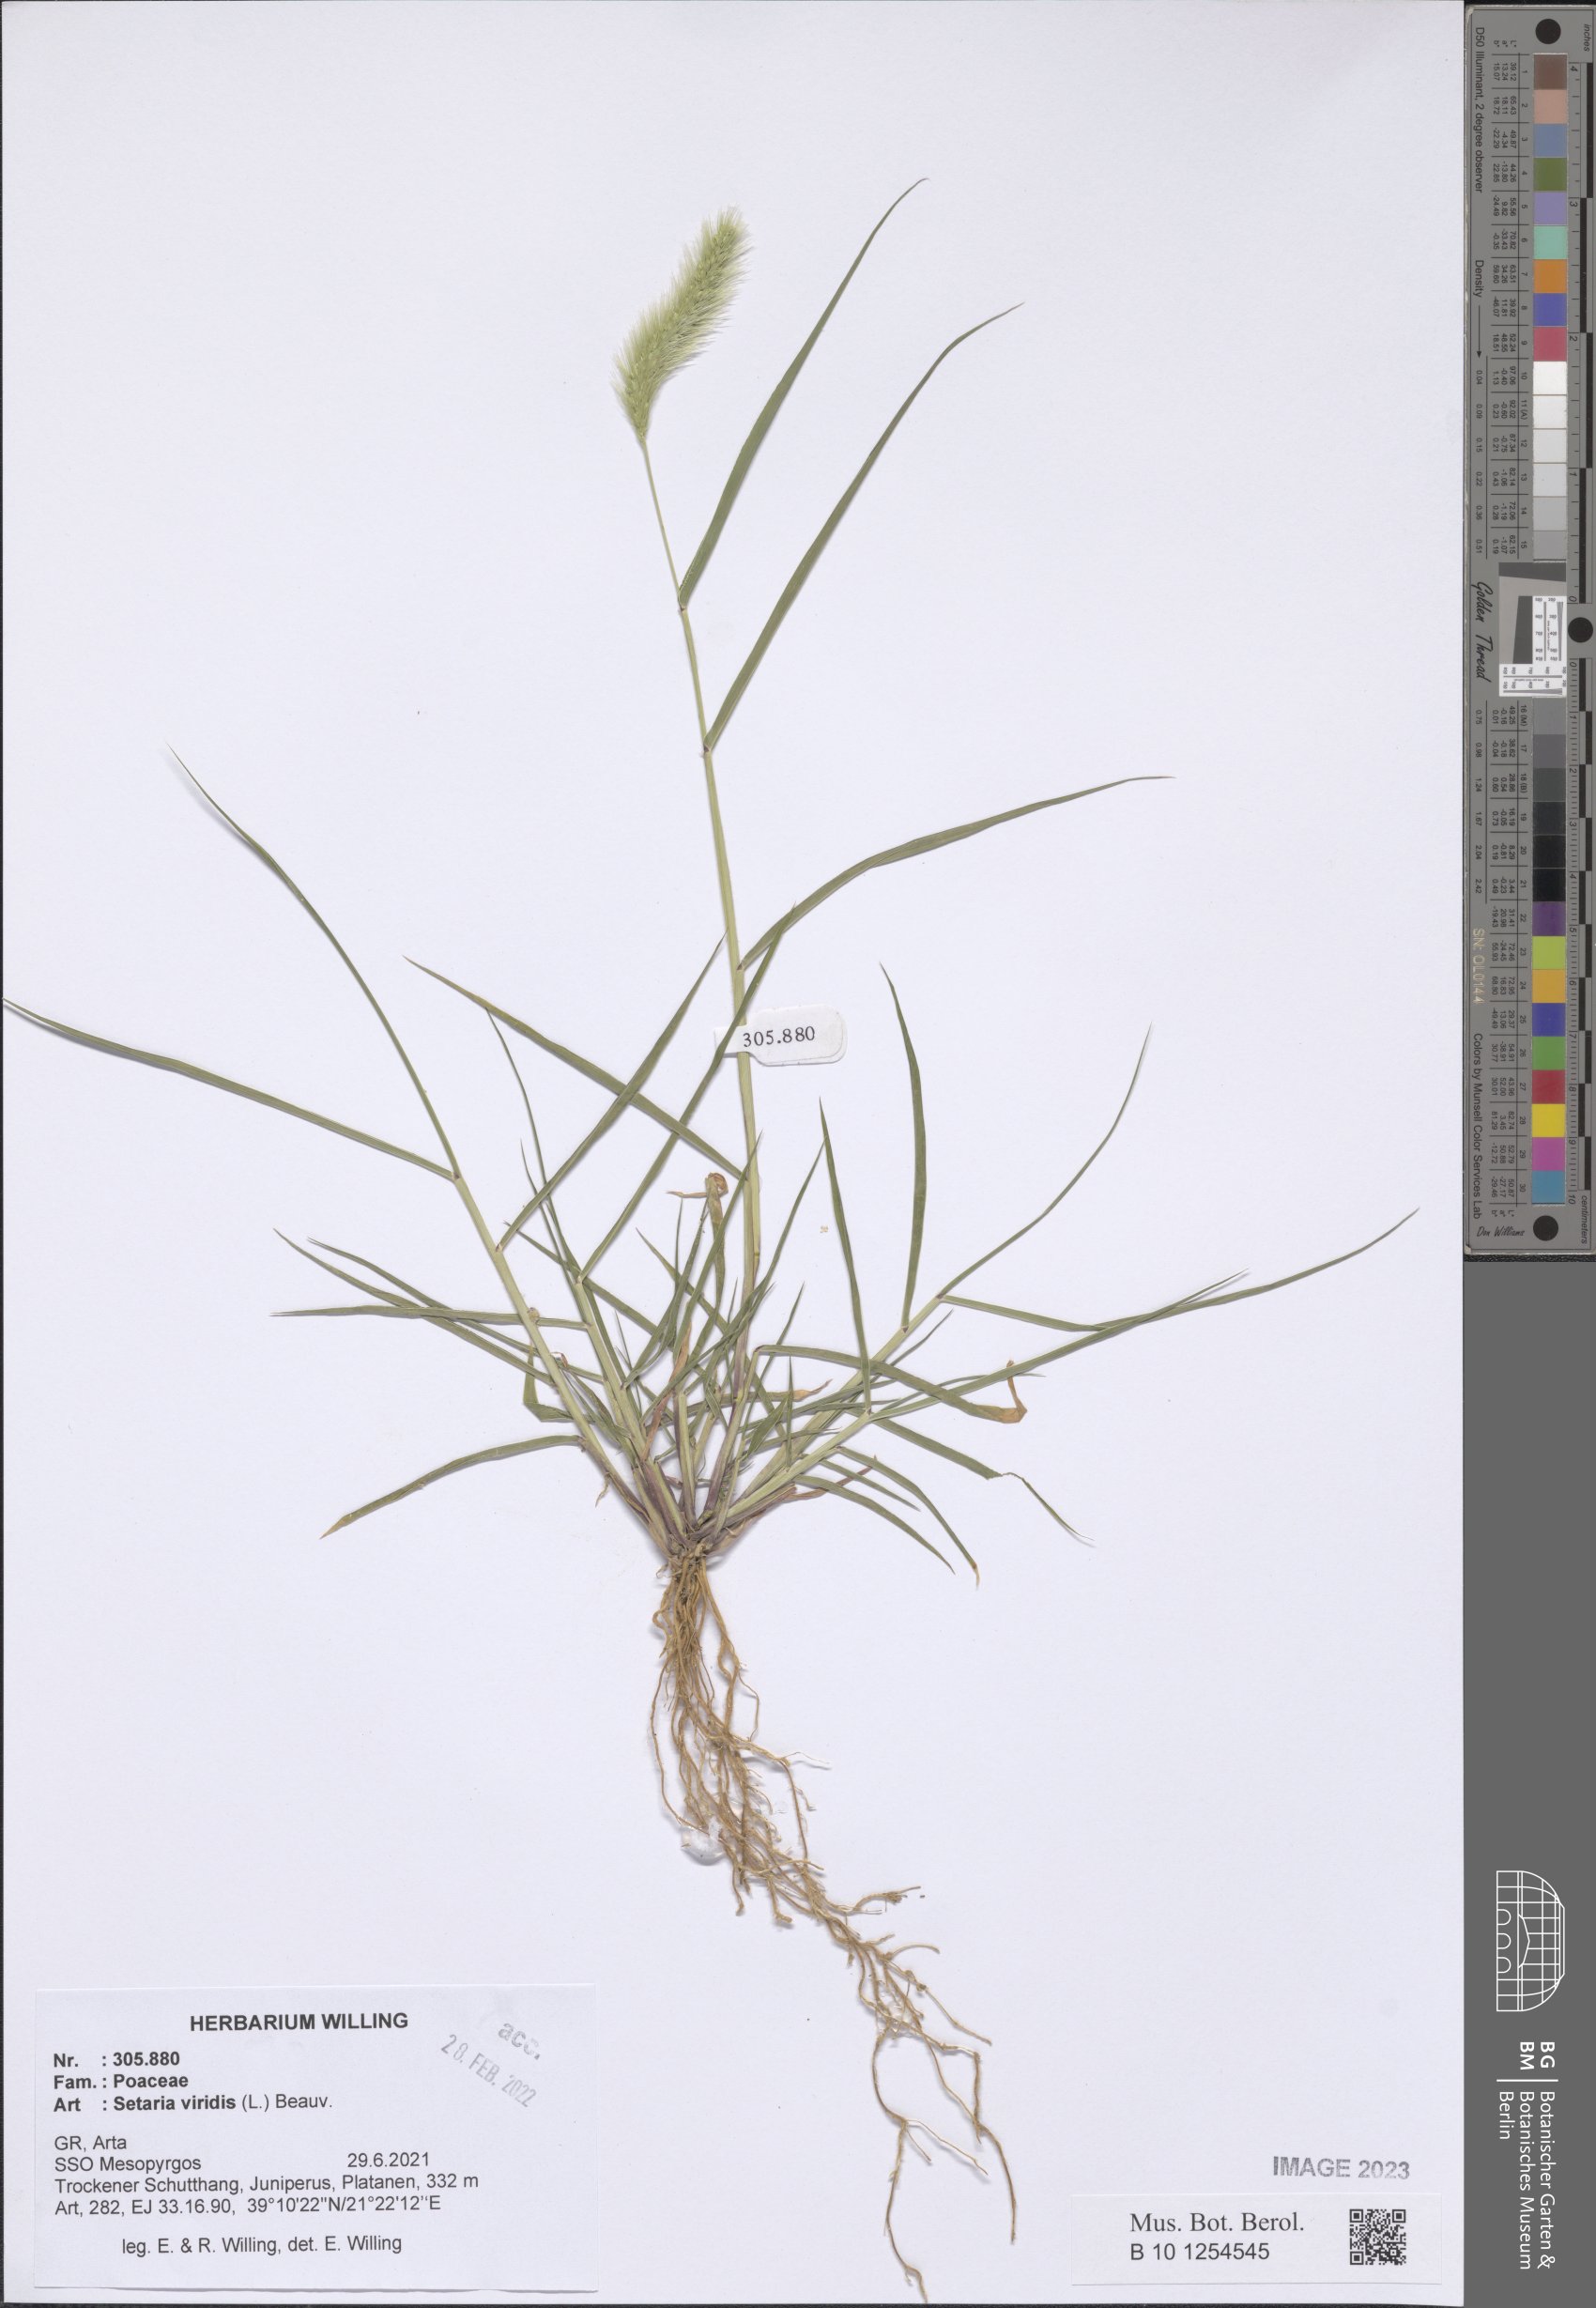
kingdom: Plantae
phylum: Tracheophyta
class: Liliopsida
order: Poales
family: Poaceae
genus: Setaria
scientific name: Setaria viridis
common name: Green bristlegrass
